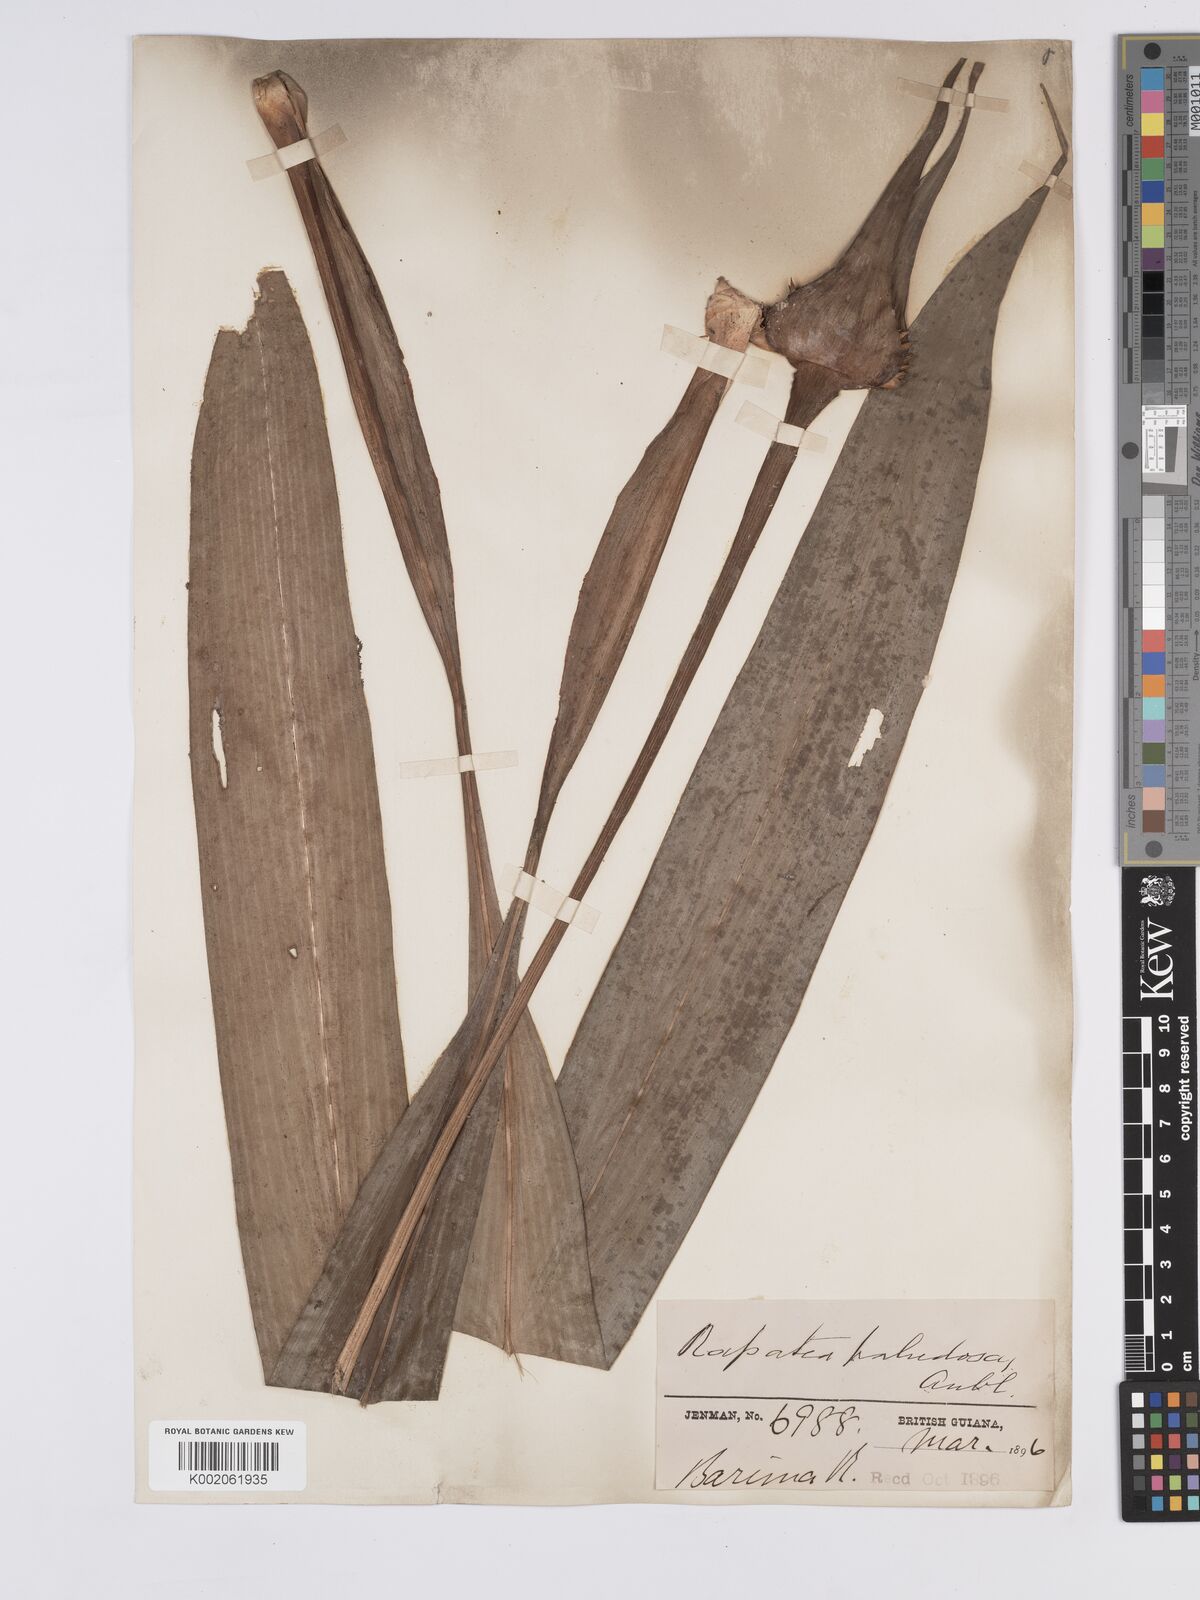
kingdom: Plantae
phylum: Tracheophyta
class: Liliopsida
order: Poales
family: Rapateaceae
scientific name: Rapateaceae
